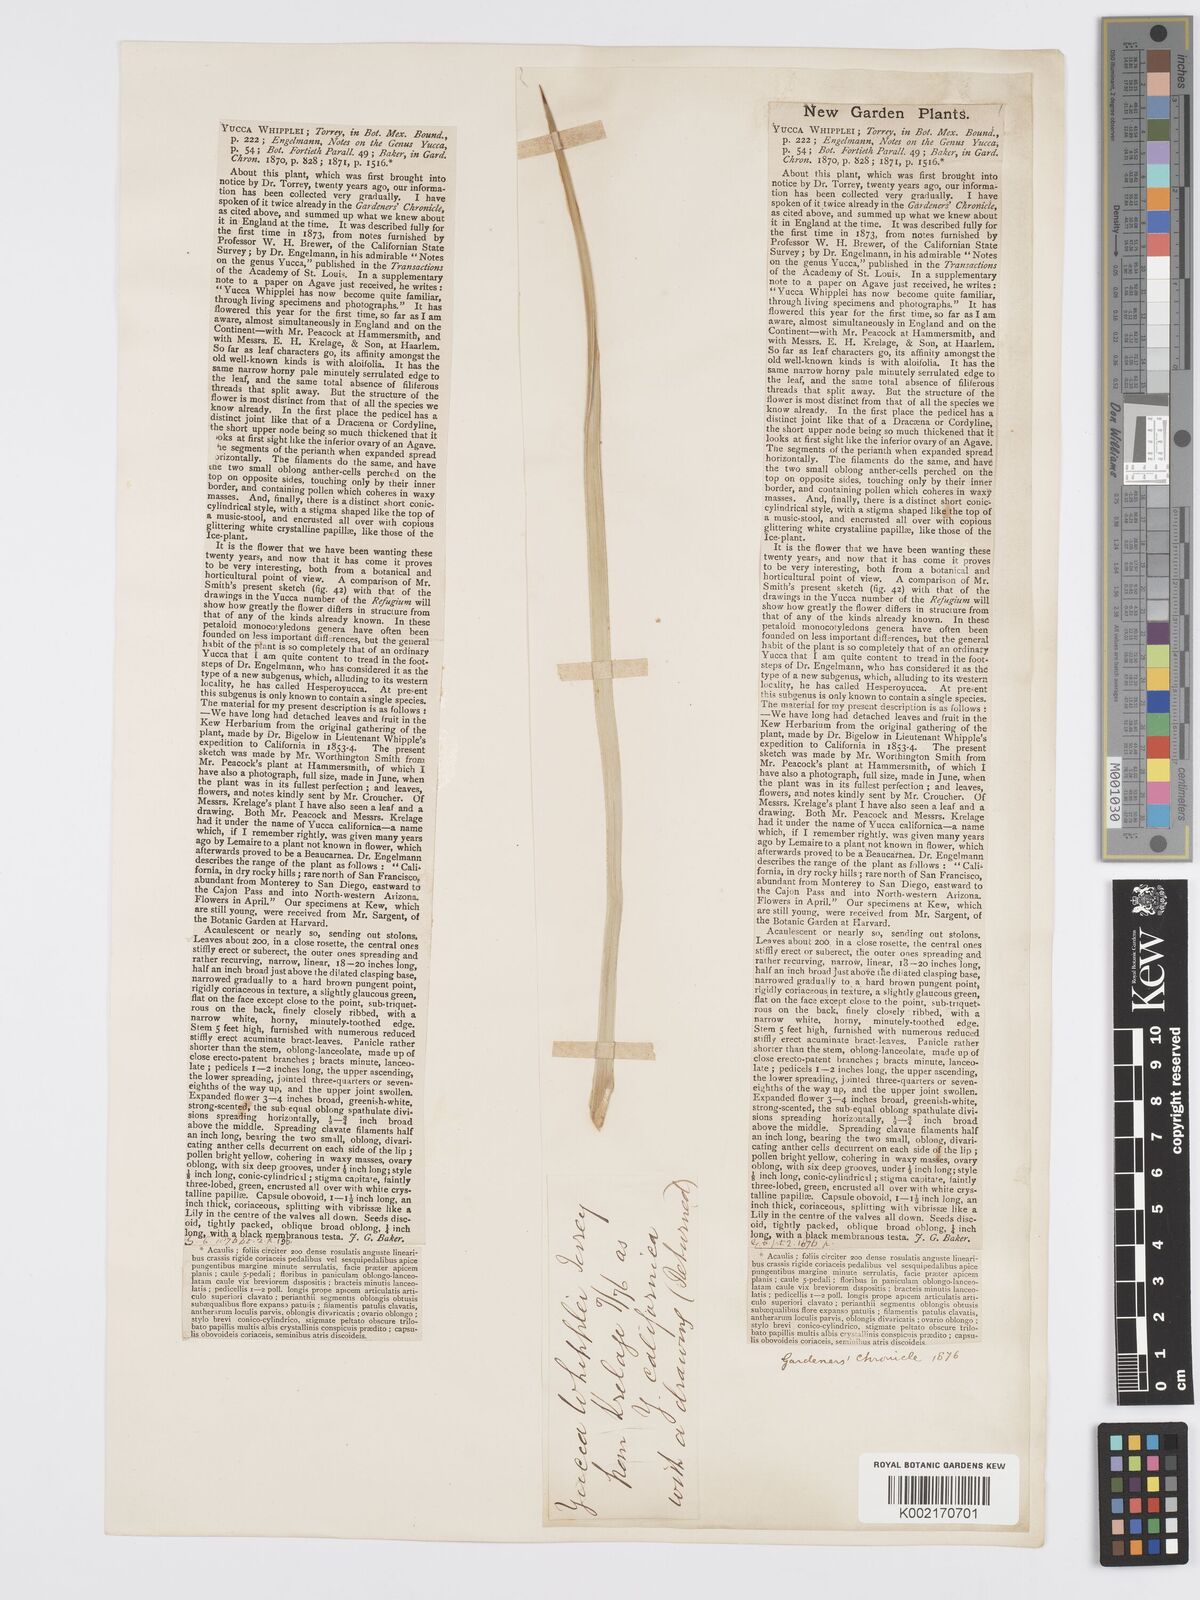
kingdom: Plantae
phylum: Tracheophyta
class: Liliopsida
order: Asparagales
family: Asparagaceae
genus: Hesperoyucca
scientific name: Hesperoyucca whipplei
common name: Our lord's-candle
